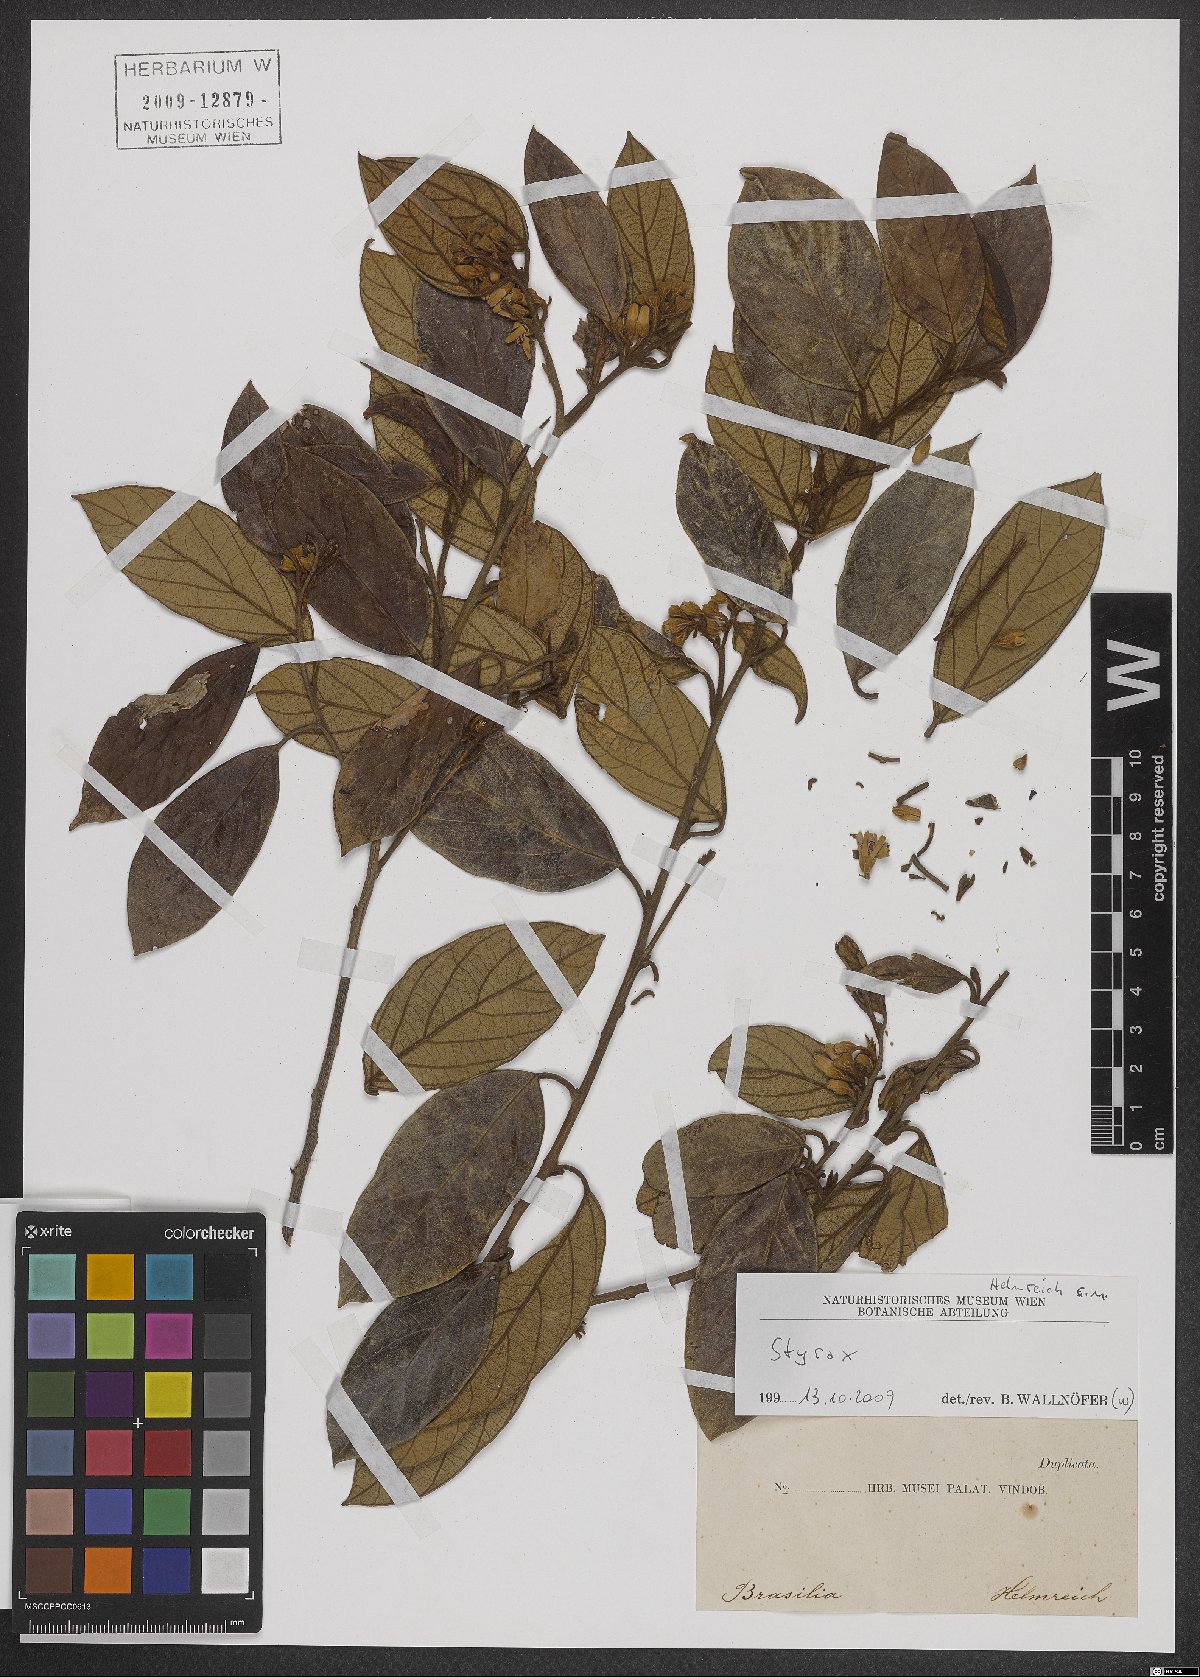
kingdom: Plantae
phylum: Tracheophyta
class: Magnoliopsida
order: Ericales
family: Styracaceae
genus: Styrax
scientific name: Styrax
